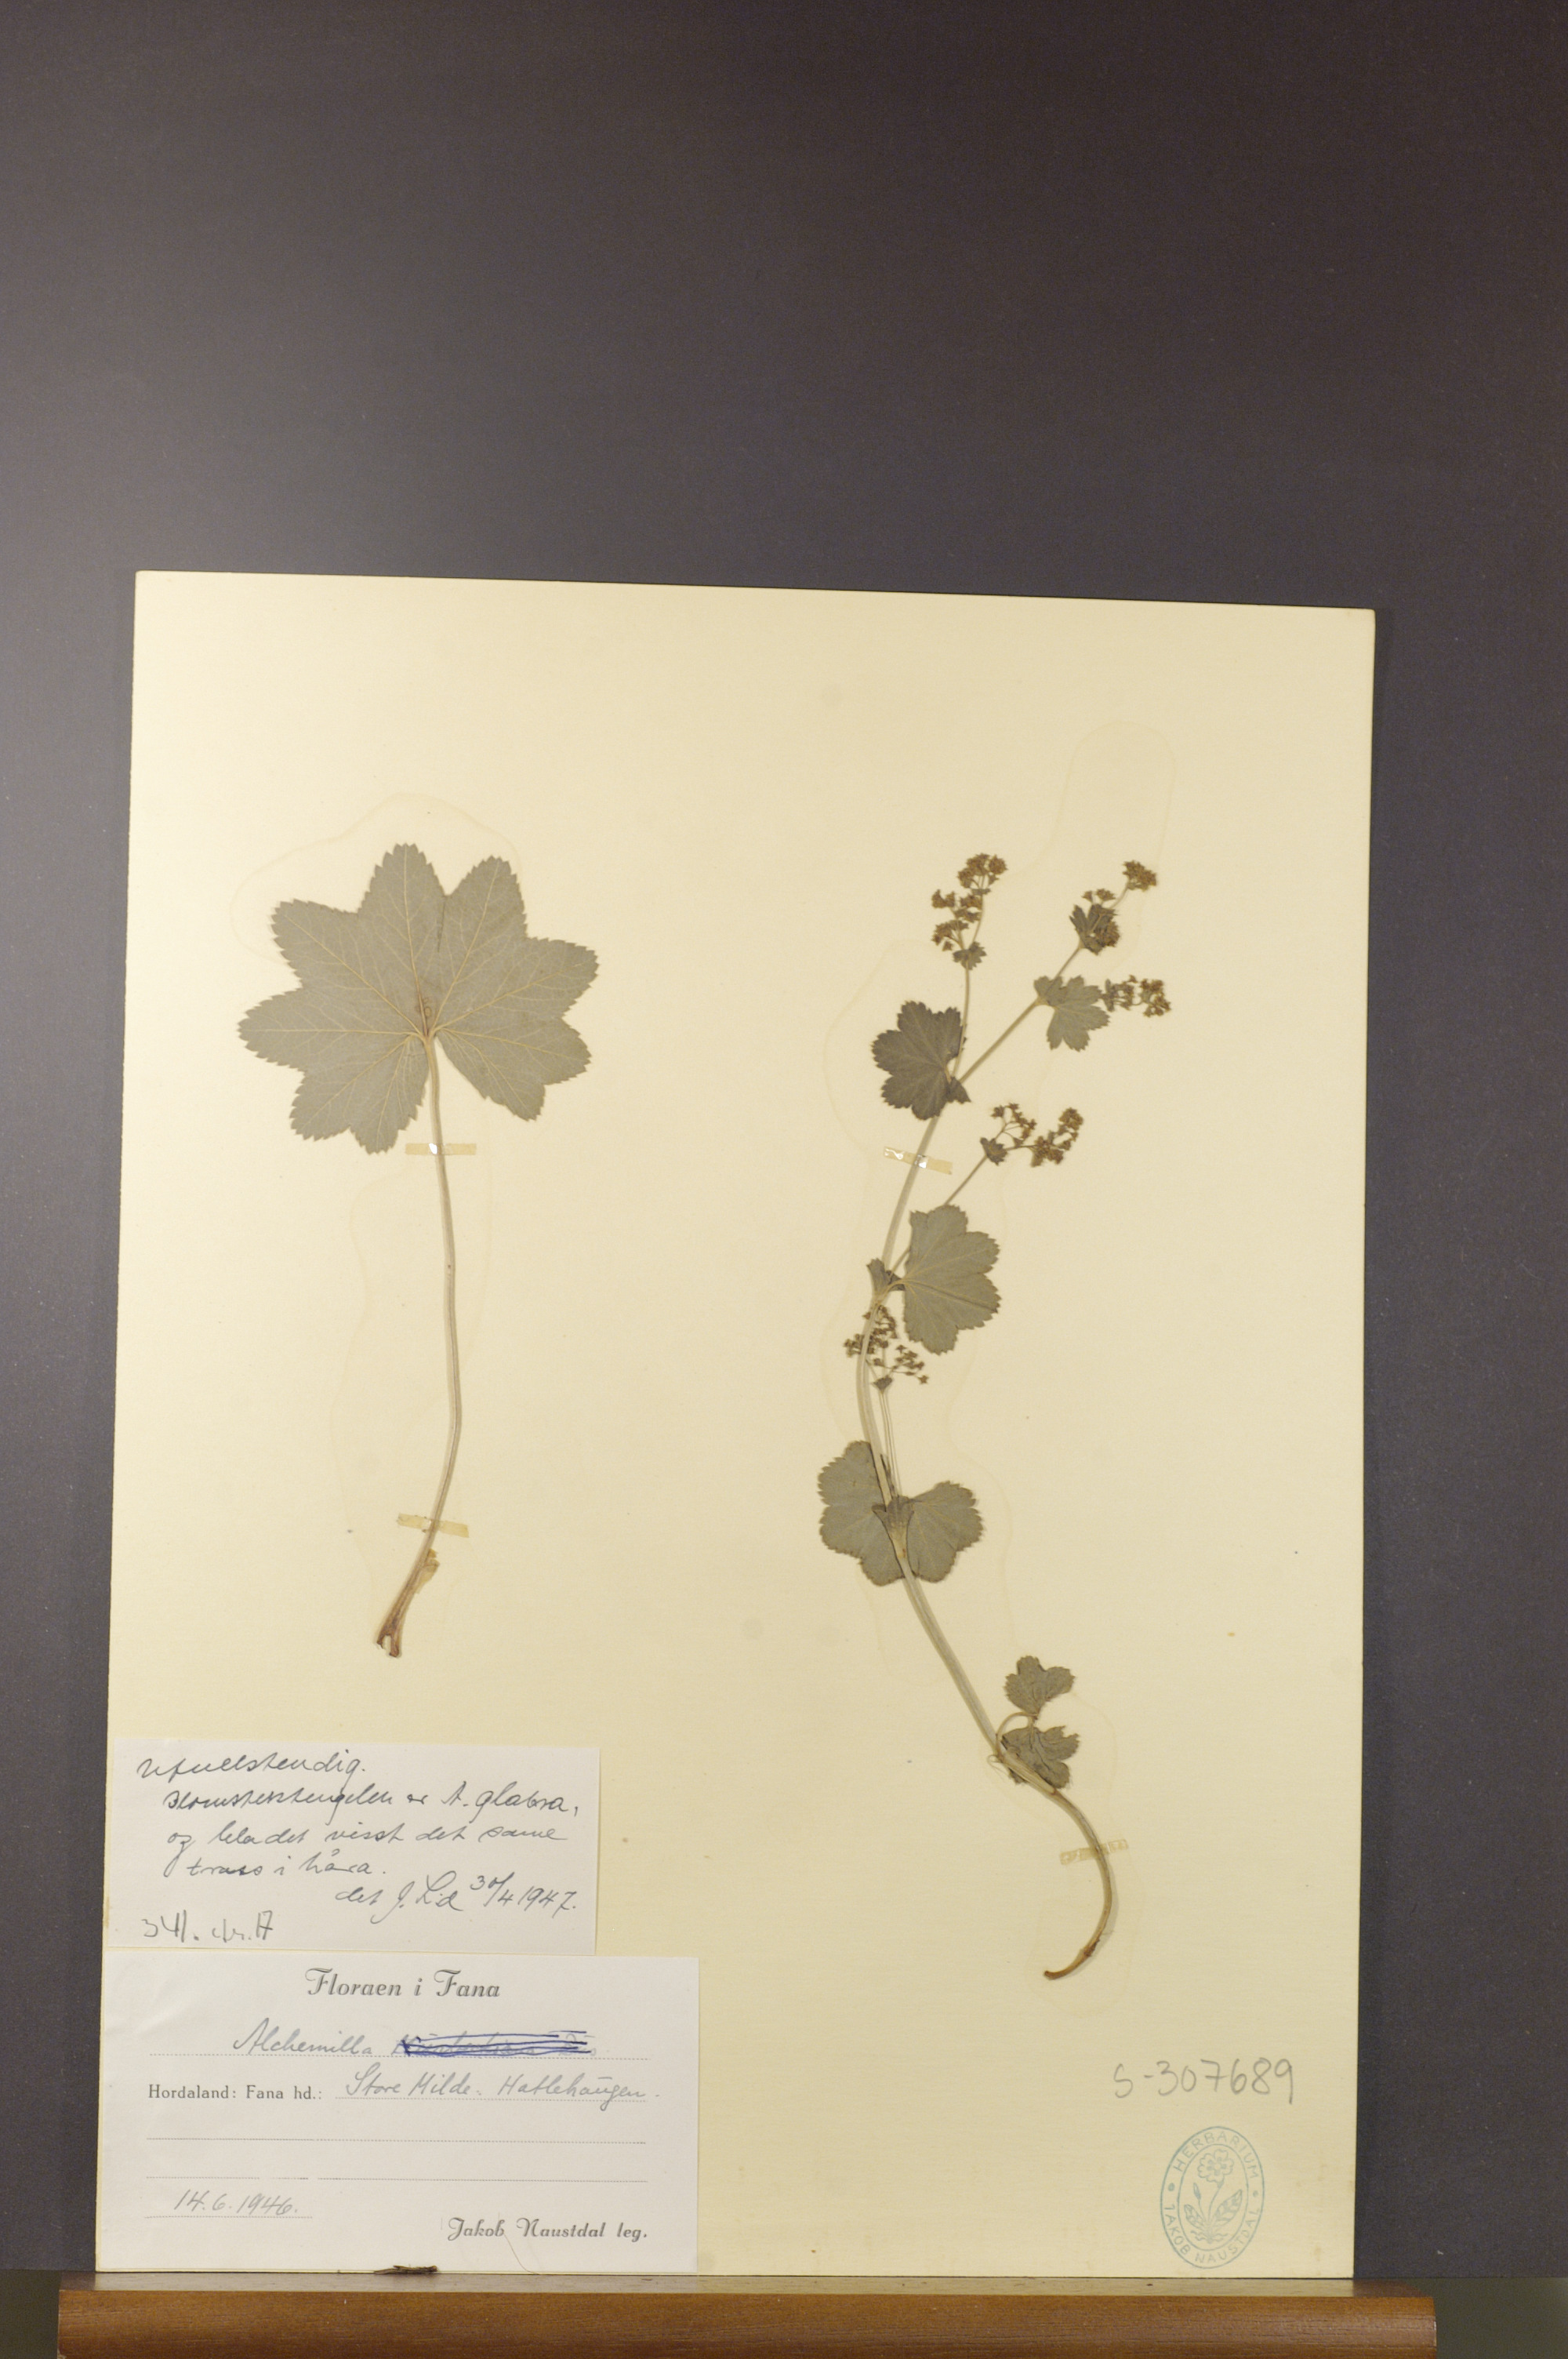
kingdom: Plantae
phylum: Tracheophyta
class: Magnoliopsida
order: Rosales
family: Rosaceae
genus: Alchemilla
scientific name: Alchemilla glabra
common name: Smooth lady's-mantle
